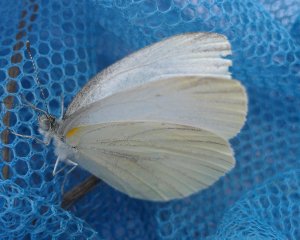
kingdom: Animalia
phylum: Arthropoda
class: Insecta
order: Lepidoptera
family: Pieridae
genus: Pieris
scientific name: Pieris oleracea
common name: Mustard White
